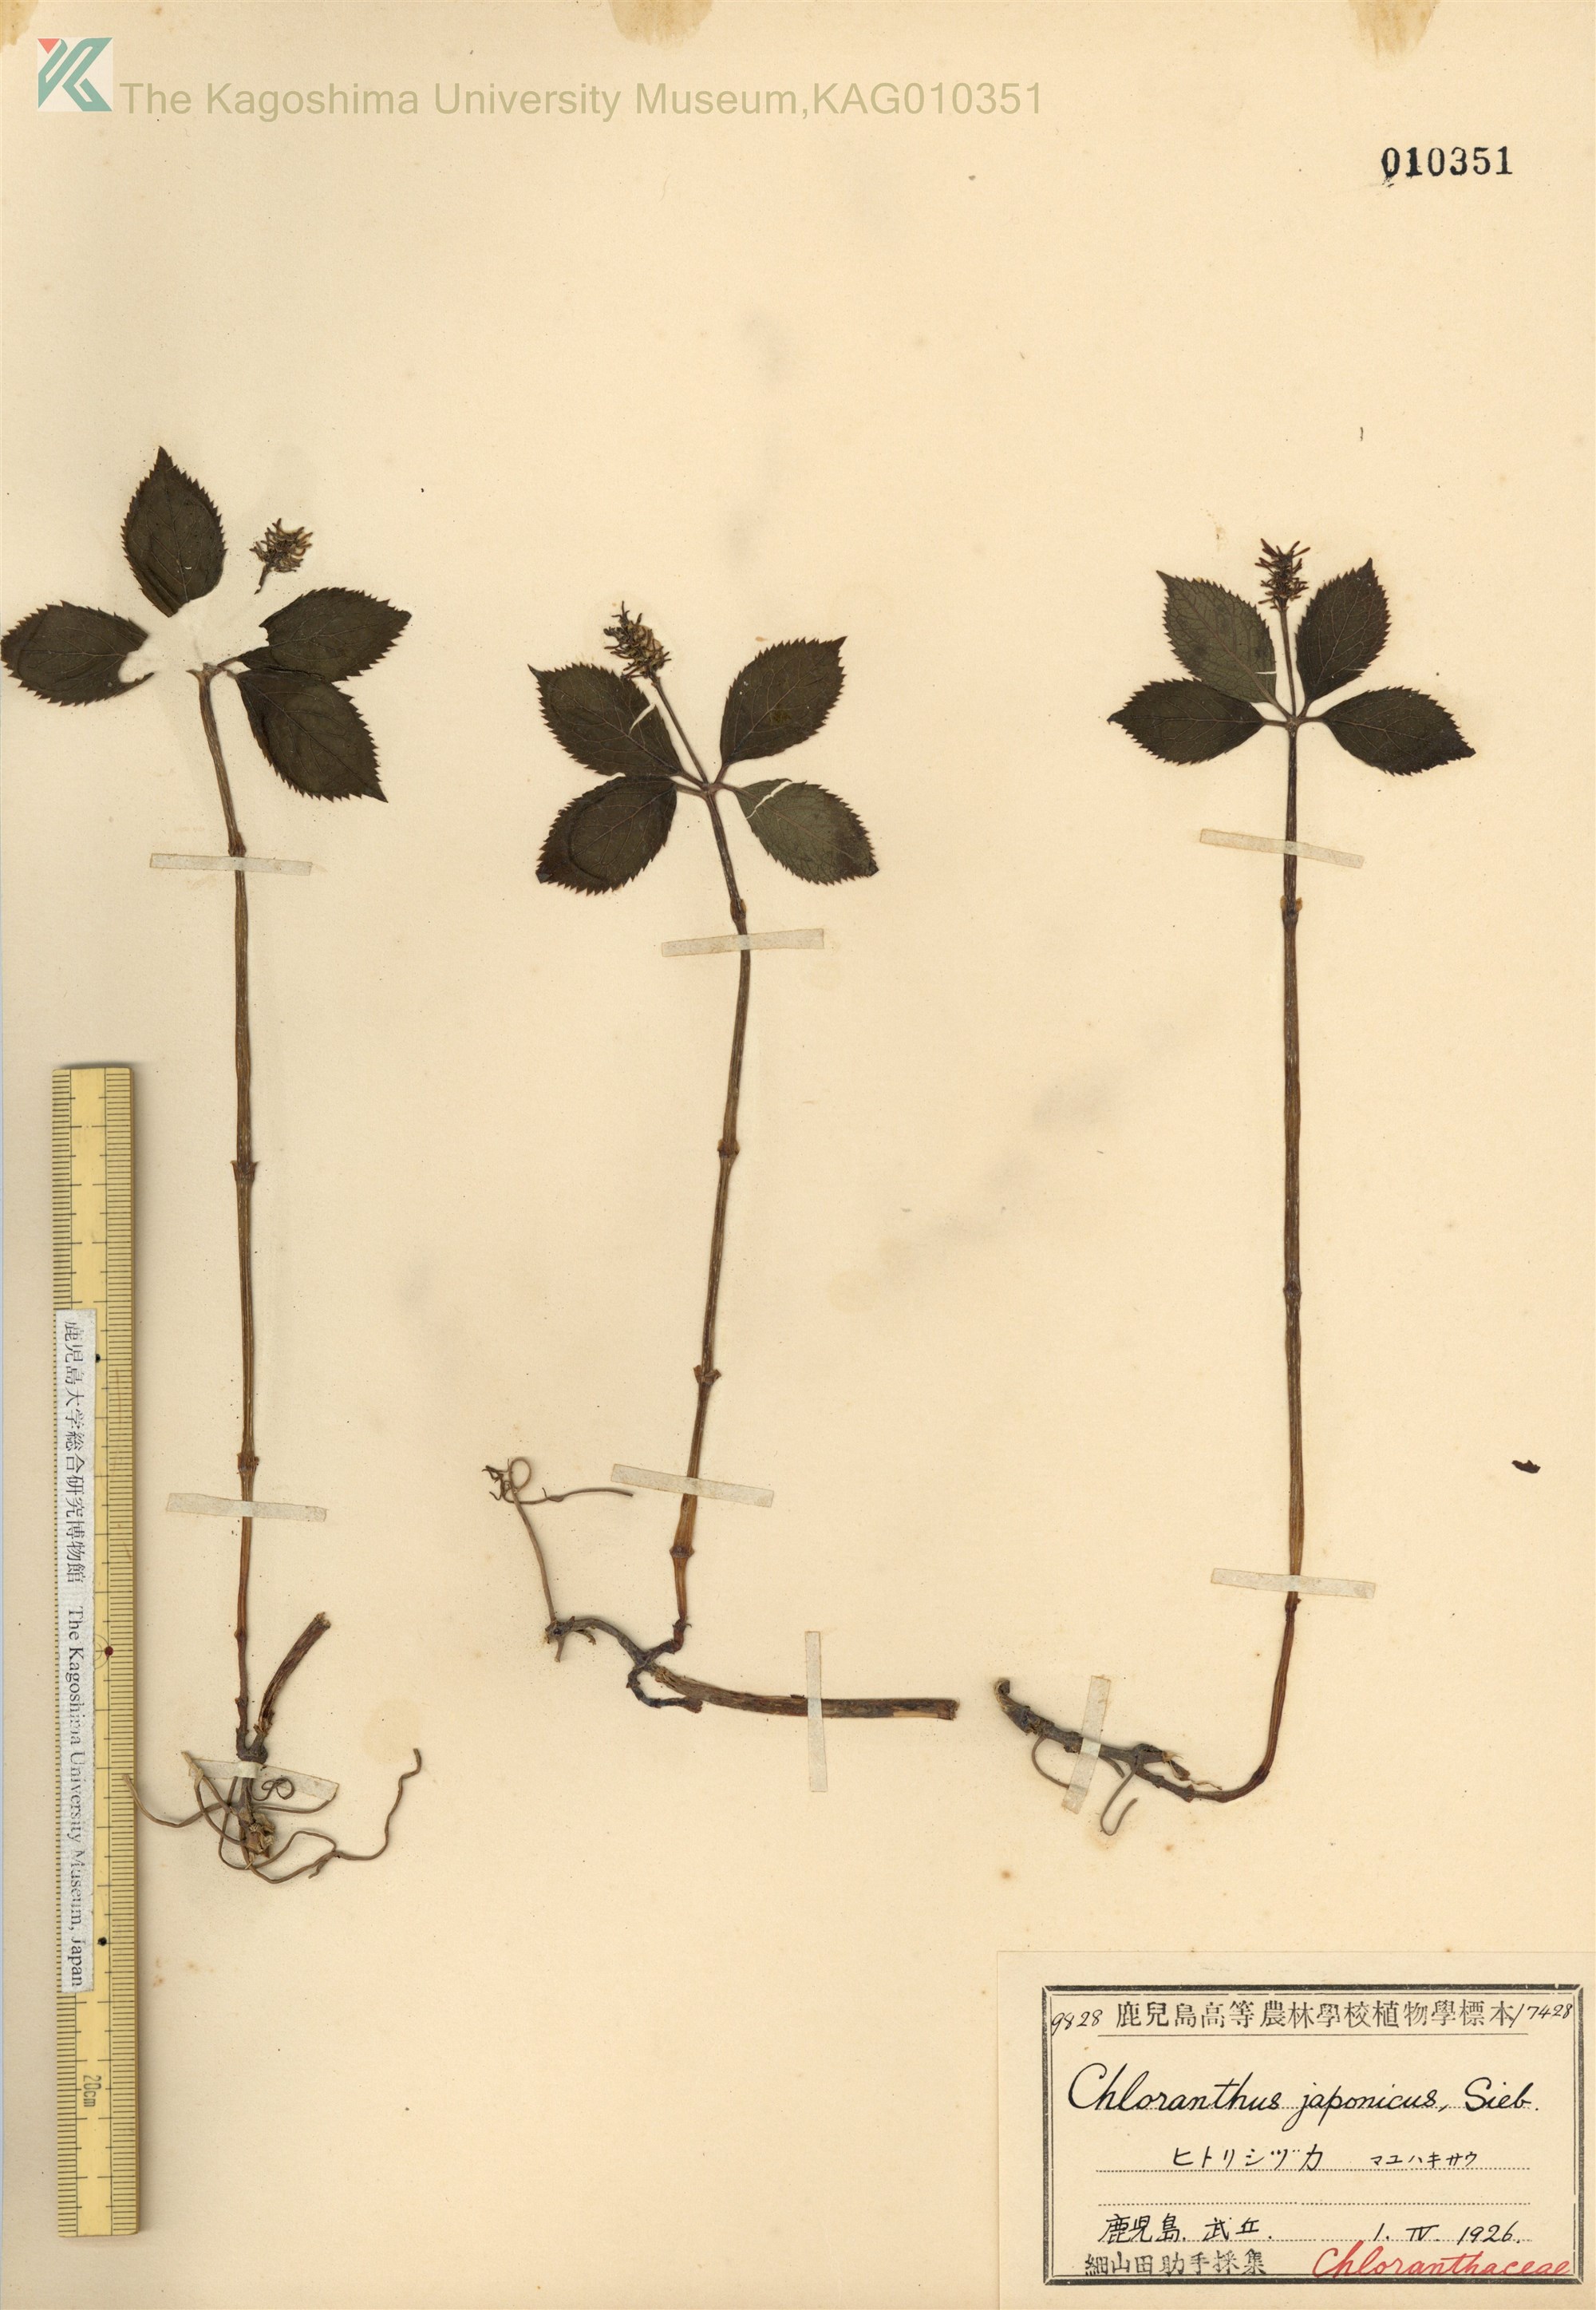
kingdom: Plantae
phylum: Tracheophyta
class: Magnoliopsida
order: Chloranthales
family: Chloranthaceae
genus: Chloranthus
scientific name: Chloranthus japonicus
